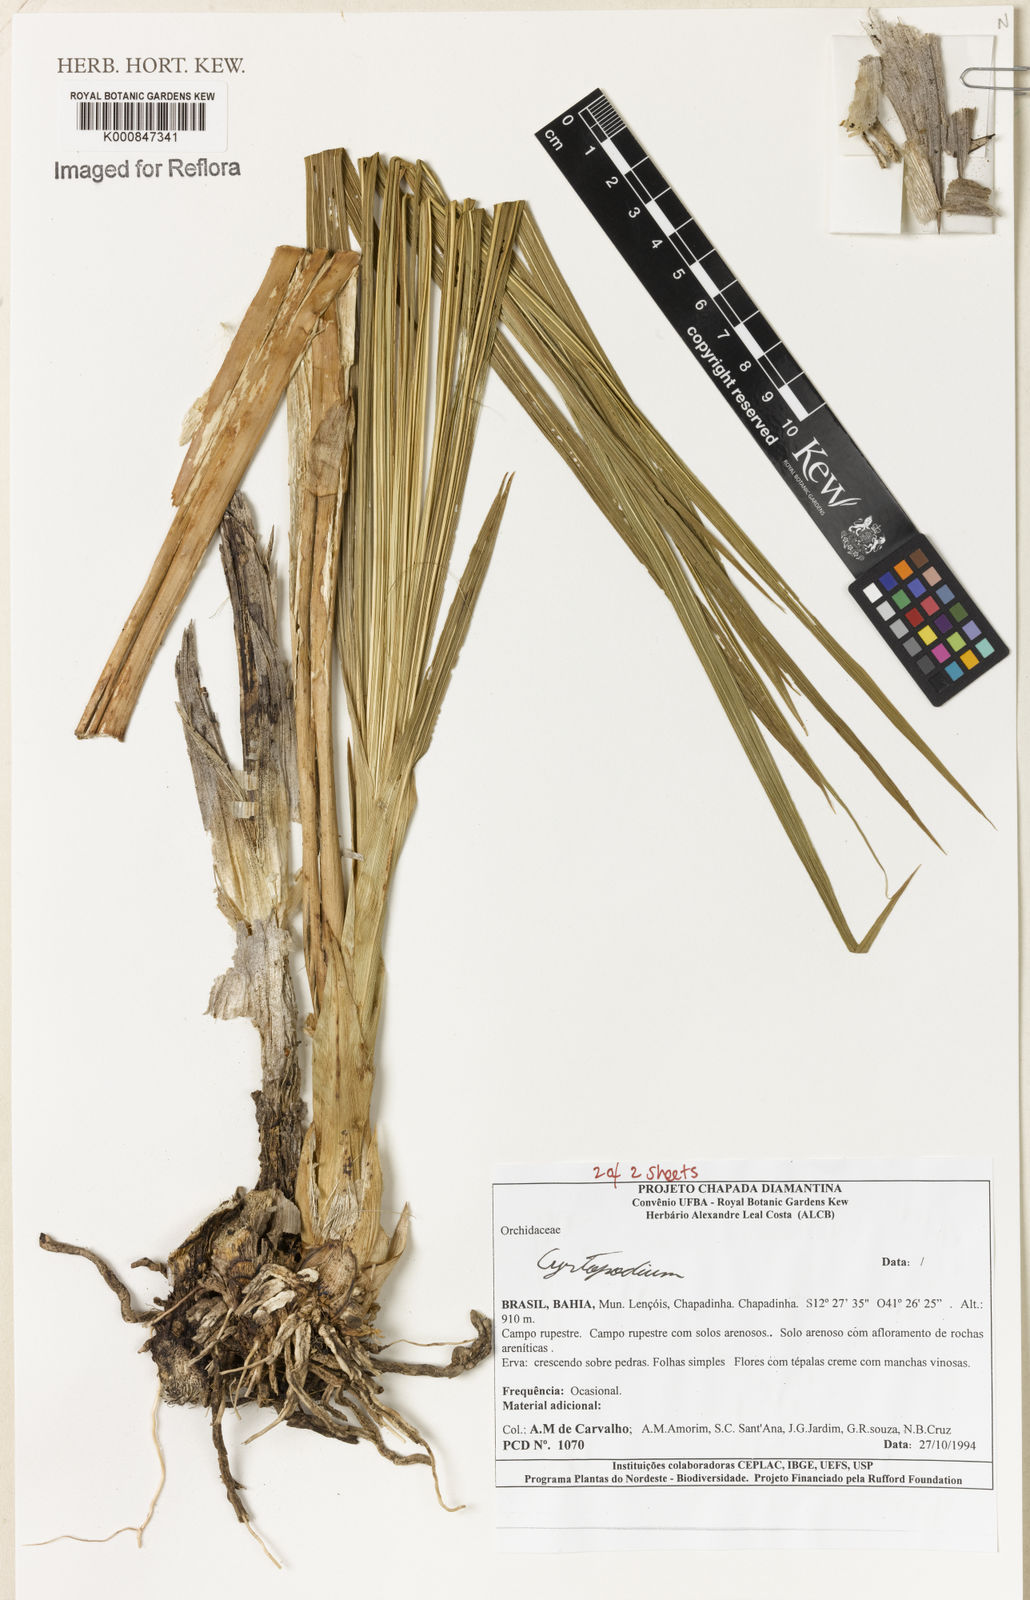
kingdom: Plantae
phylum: Tracheophyta
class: Liliopsida
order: Asparagales
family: Orchidaceae
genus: Cyrtopodium
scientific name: Cyrtopodium
